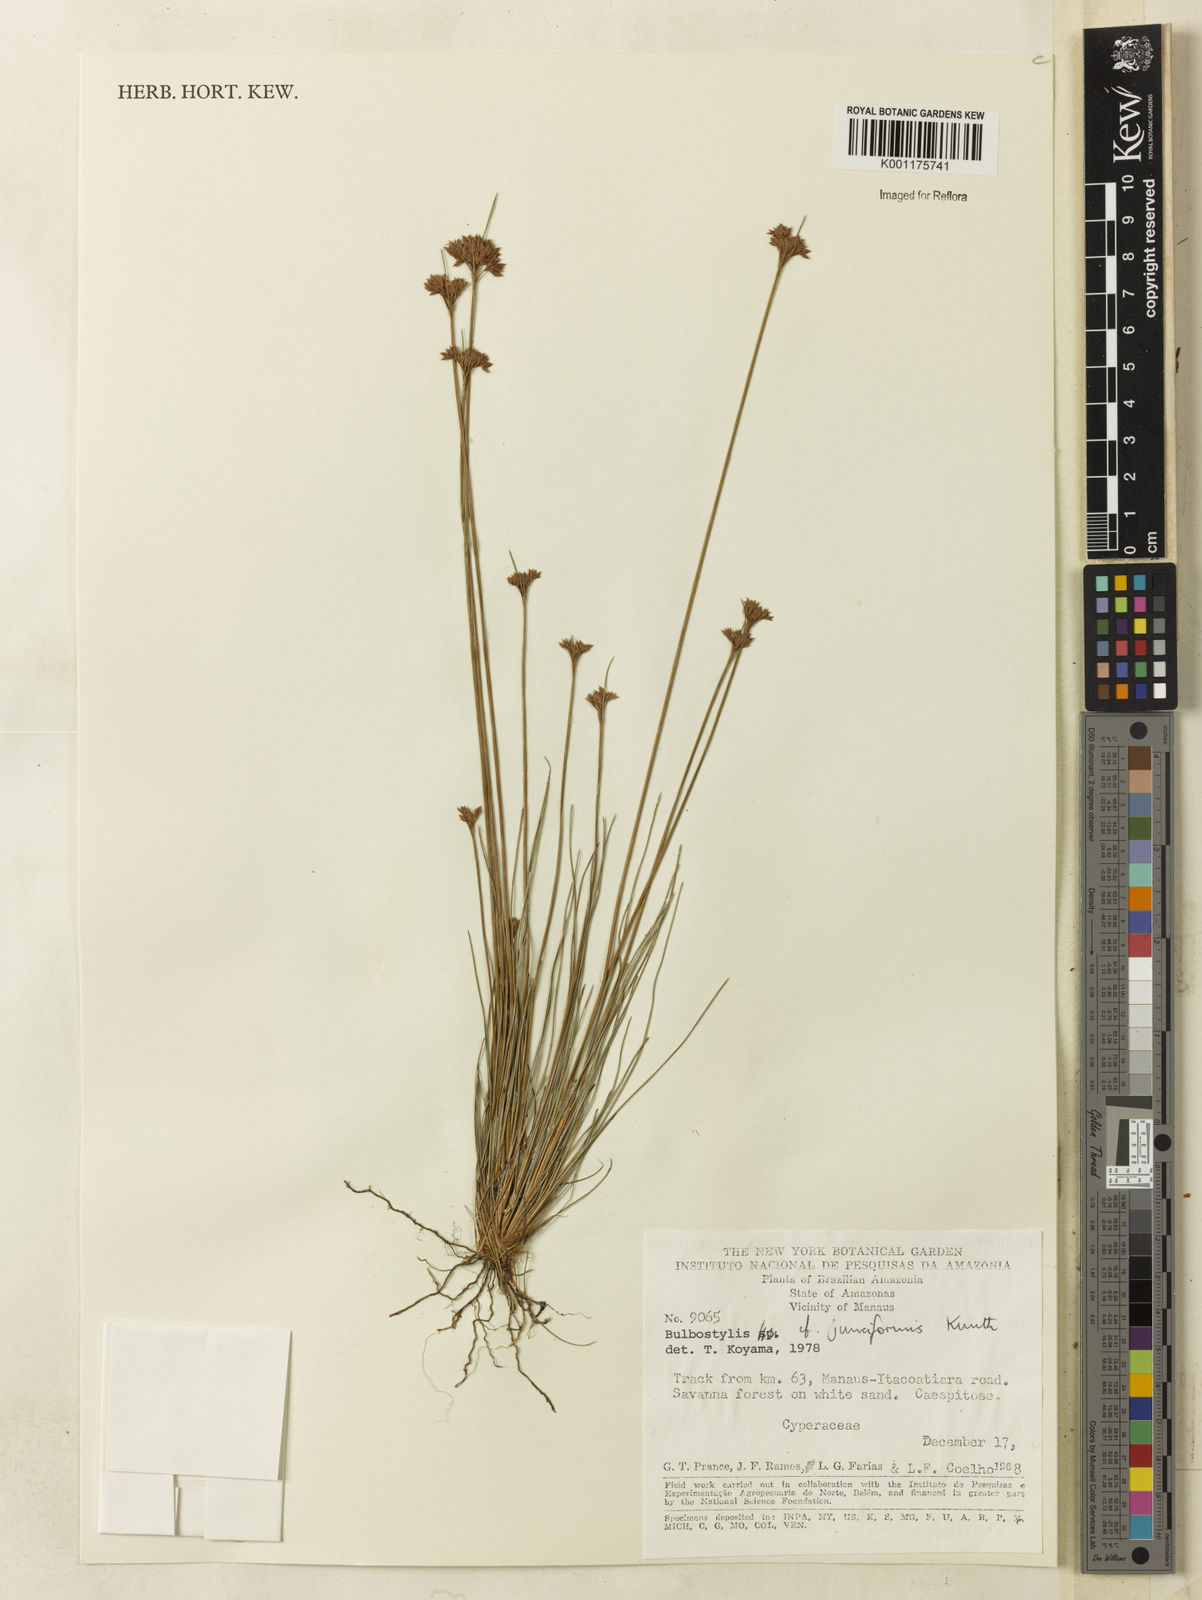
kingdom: Plantae
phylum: Tracheophyta
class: Liliopsida
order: Poales
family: Cyperaceae
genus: Bulbostylis
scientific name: Bulbostylis junciformis
